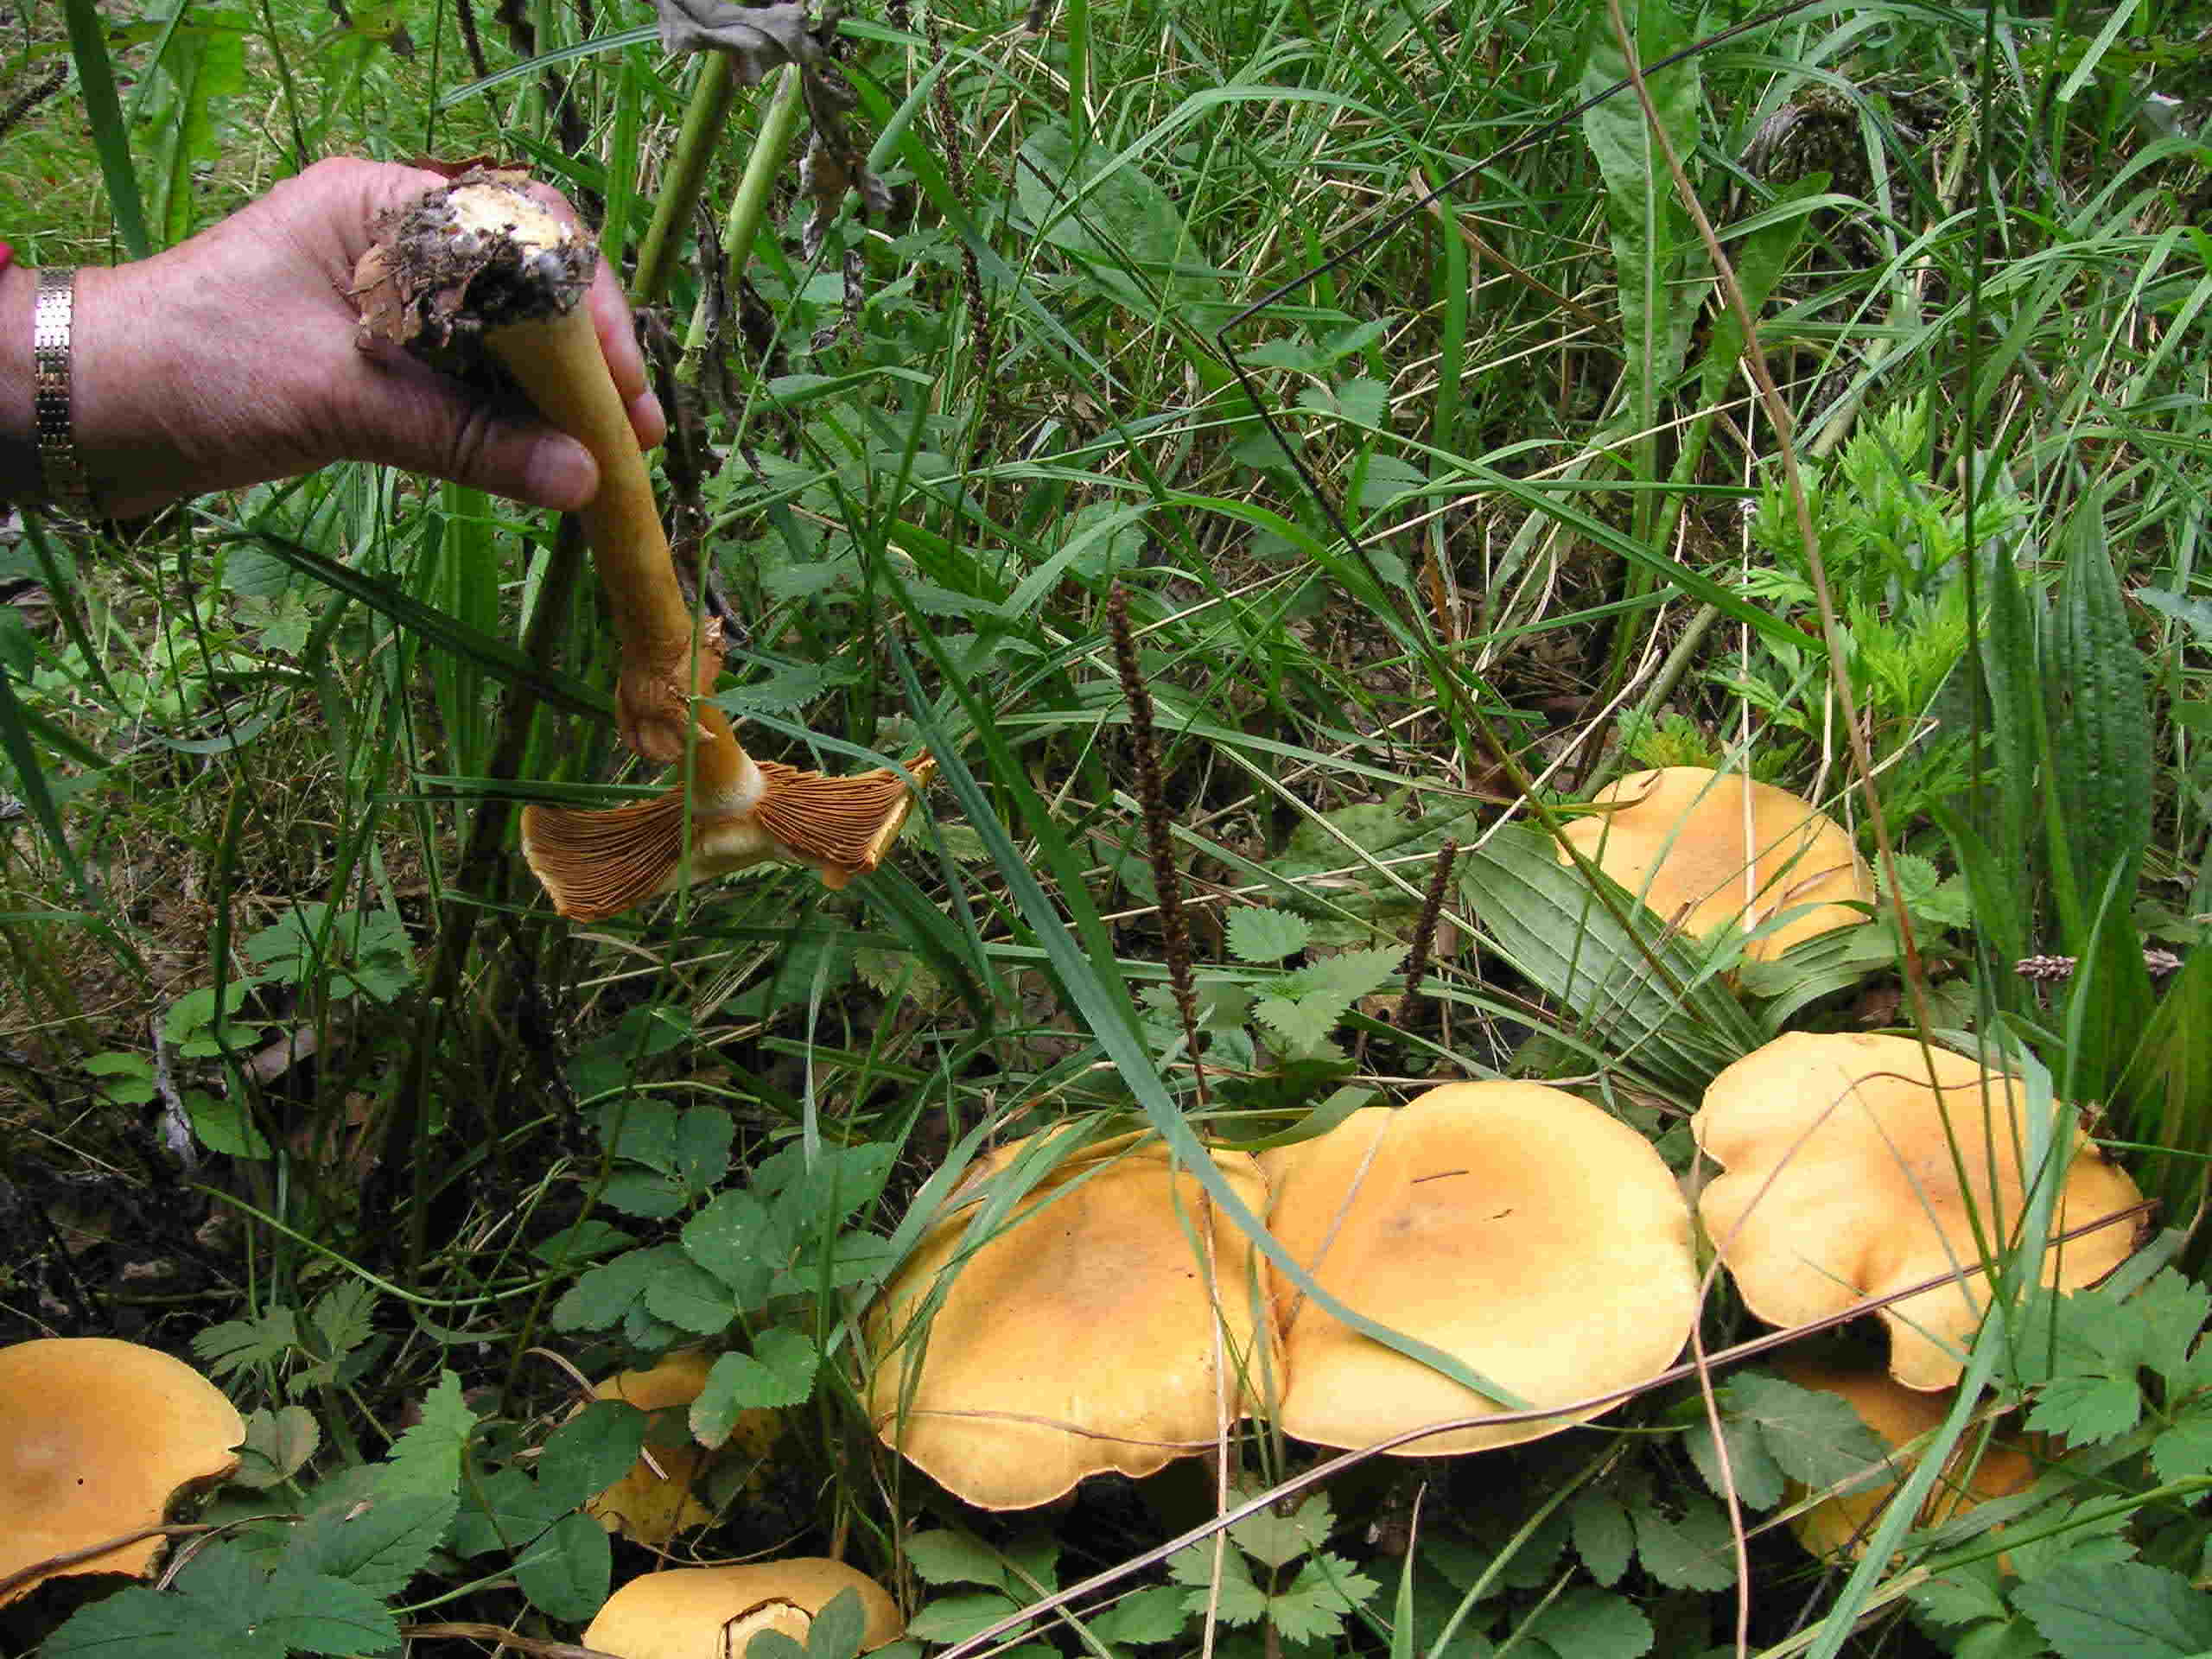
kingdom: Fungi
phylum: Basidiomycota
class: Agaricomycetes
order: Agaricales
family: Tricholomataceae
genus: Phaeolepiota
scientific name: Phaeolepiota aurea
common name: gyldenhat
